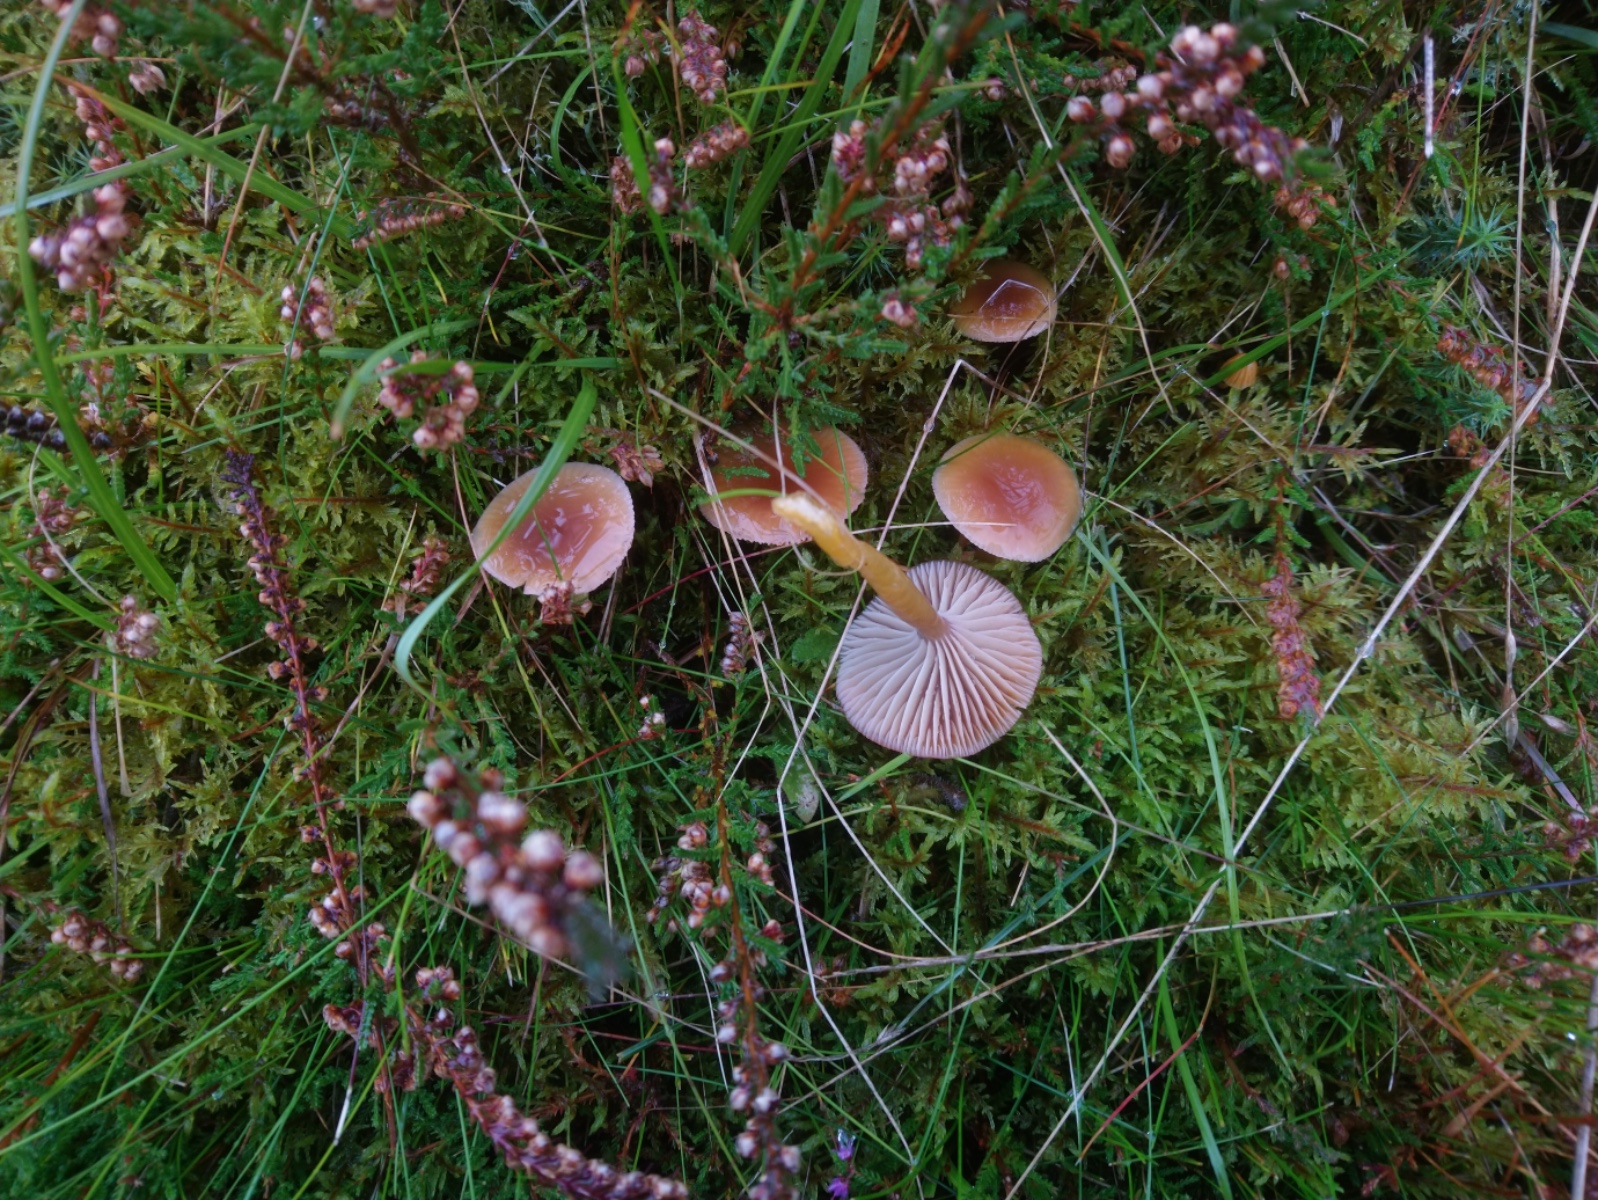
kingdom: Fungi
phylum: Basidiomycota
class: Agaricomycetes
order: Agaricales
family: Hygrophoraceae
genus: Gliophorus
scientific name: Gliophorus laetus
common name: brusk-vokshat
